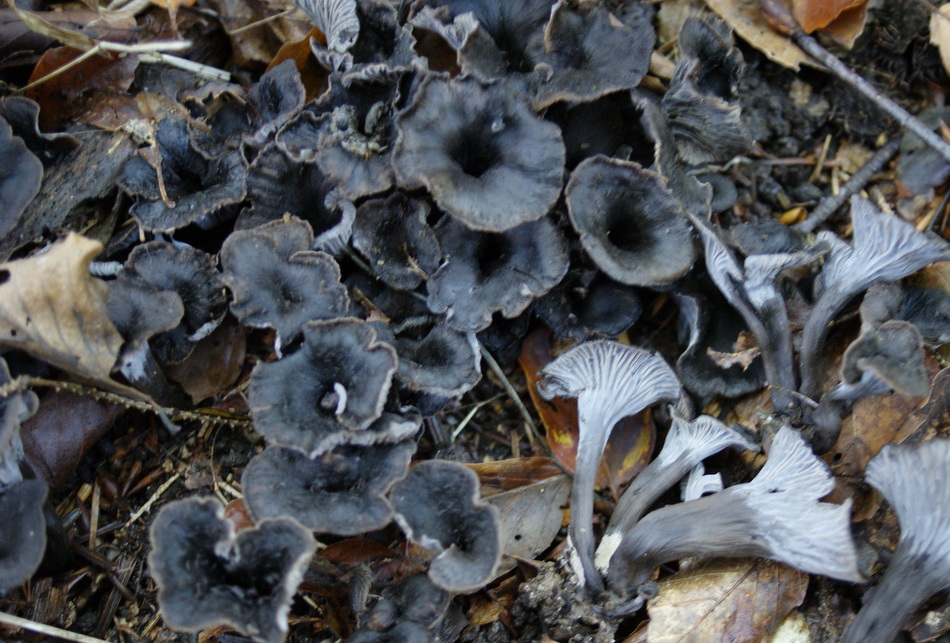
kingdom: Fungi
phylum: Basidiomycota
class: Agaricomycetes
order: Cantharellales
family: Hydnaceae
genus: Cantharellus
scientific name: Cantharellus cinereus
